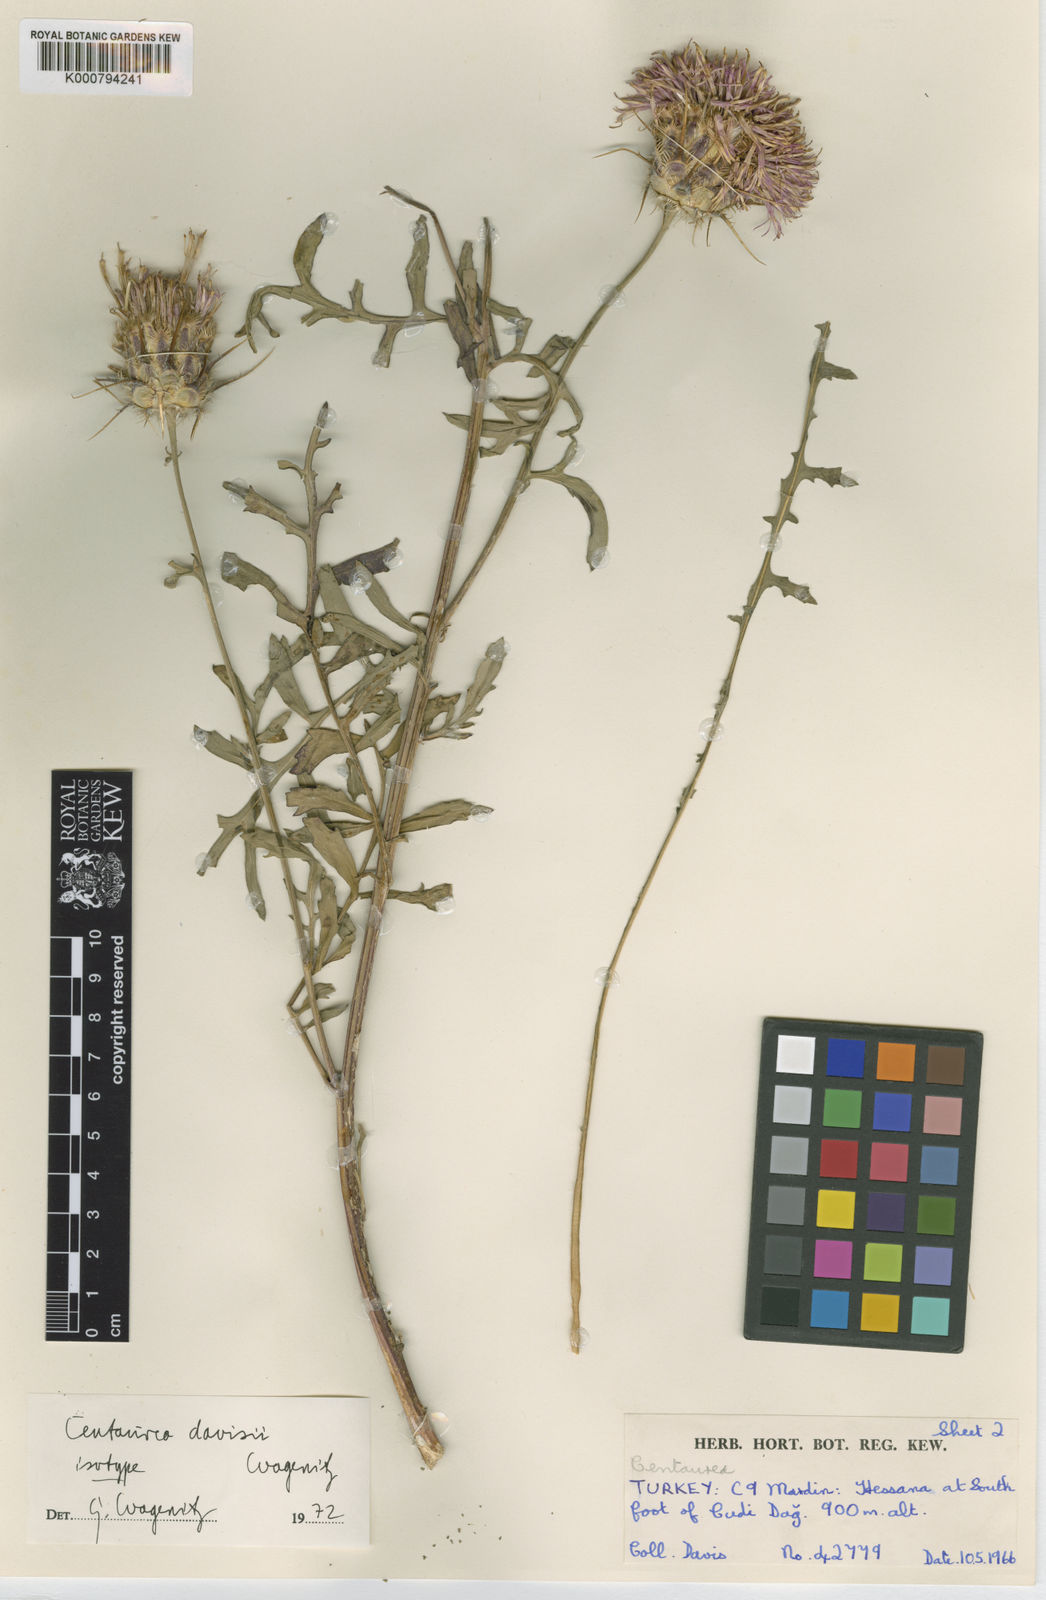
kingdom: Plantae
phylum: Tracheophyta
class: Magnoliopsida
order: Asterales
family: Asteraceae
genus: Centaurea
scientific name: Centaurea davisii
